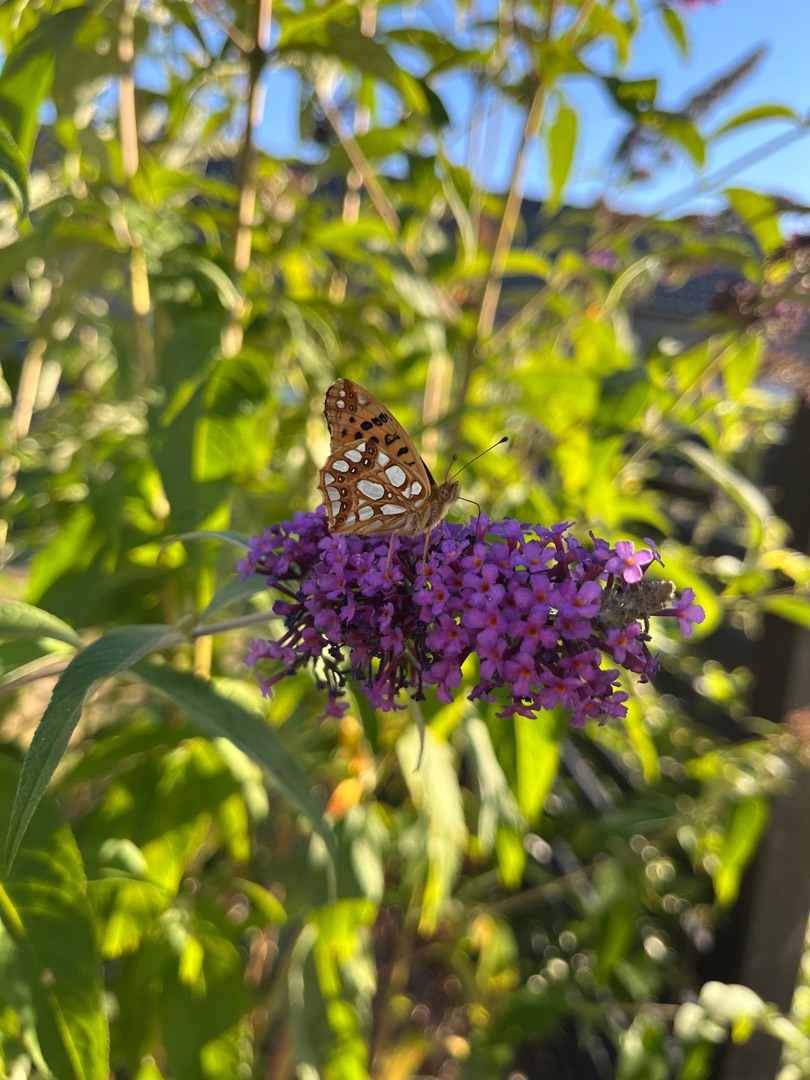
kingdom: Animalia
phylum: Arthropoda
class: Insecta
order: Lepidoptera
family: Nymphalidae
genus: Issoria
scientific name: Issoria lathonia
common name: Storplettet perlemorsommerfugl
